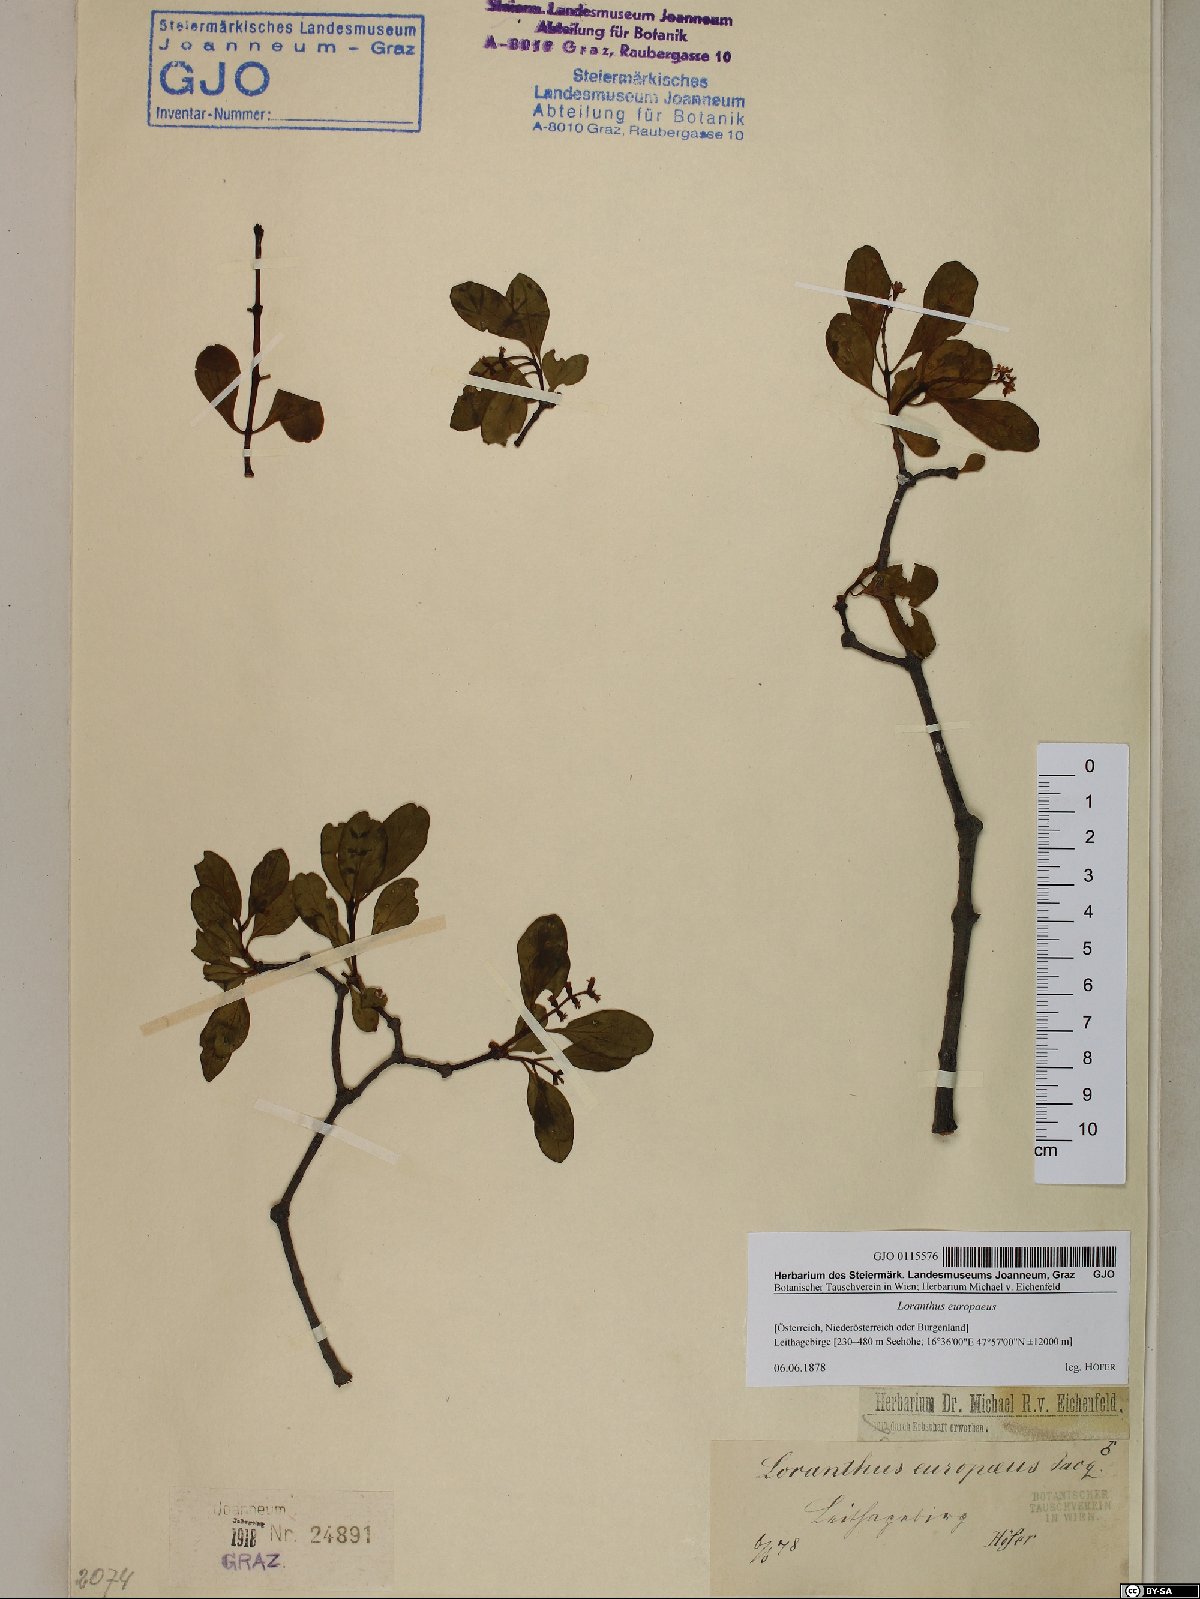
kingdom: Plantae
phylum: Tracheophyta
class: Magnoliopsida
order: Santalales
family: Loranthaceae
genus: Loranthus
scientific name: Loranthus europaeus
